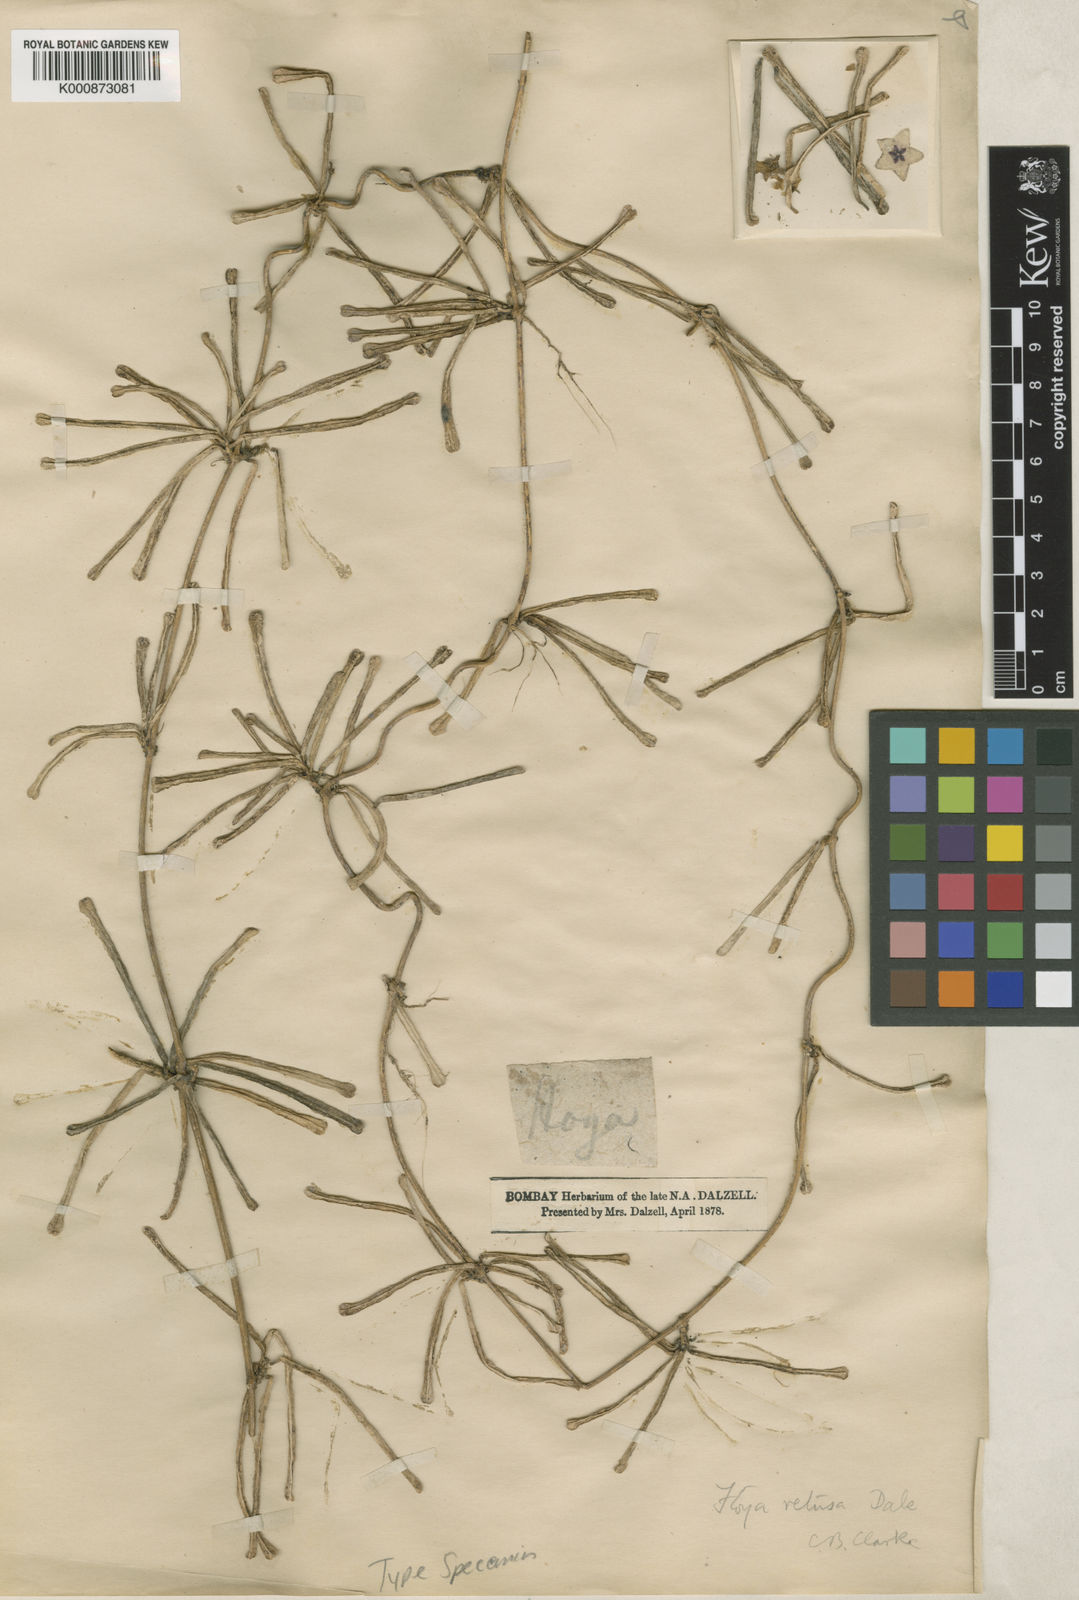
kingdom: Plantae
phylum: Tracheophyta
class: Magnoliopsida
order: Gentianales
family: Apocynaceae
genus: Hoya
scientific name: Hoya retusa
